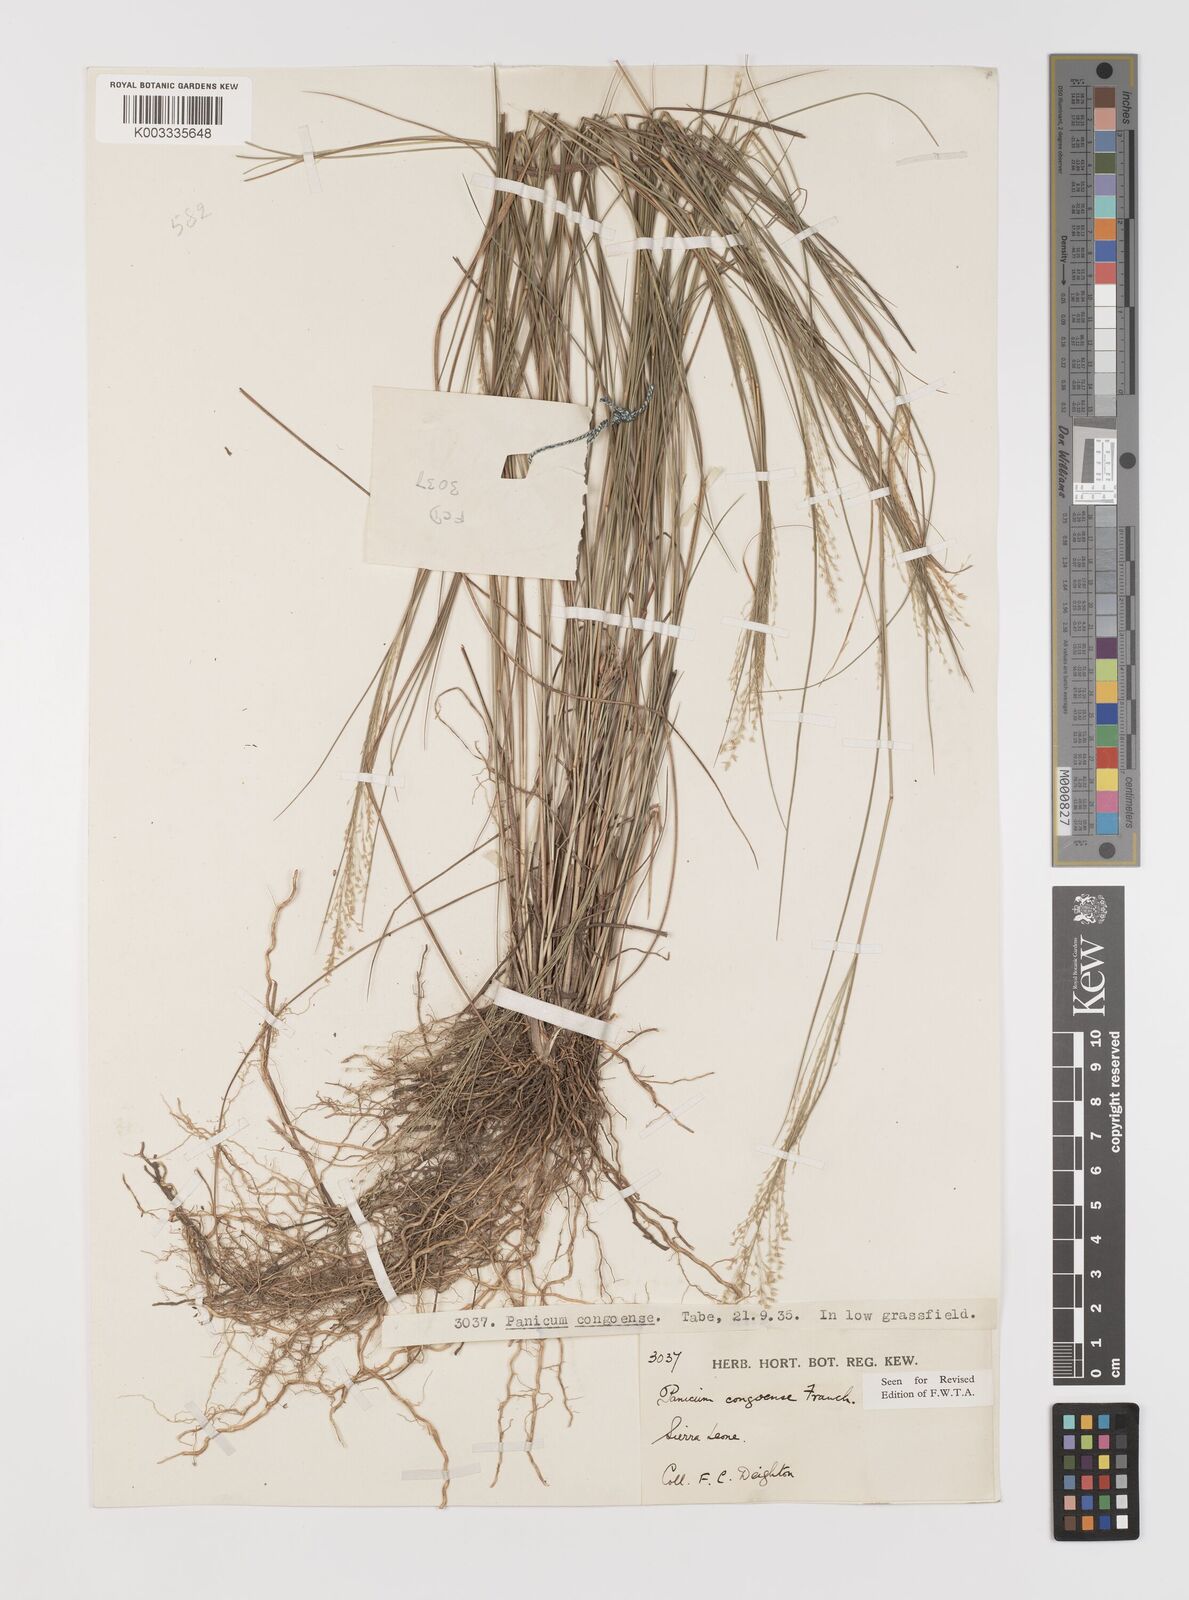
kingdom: Plantae
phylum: Tracheophyta
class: Liliopsida
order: Poales
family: Poaceae
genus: Panicum
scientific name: Panicum congoense
